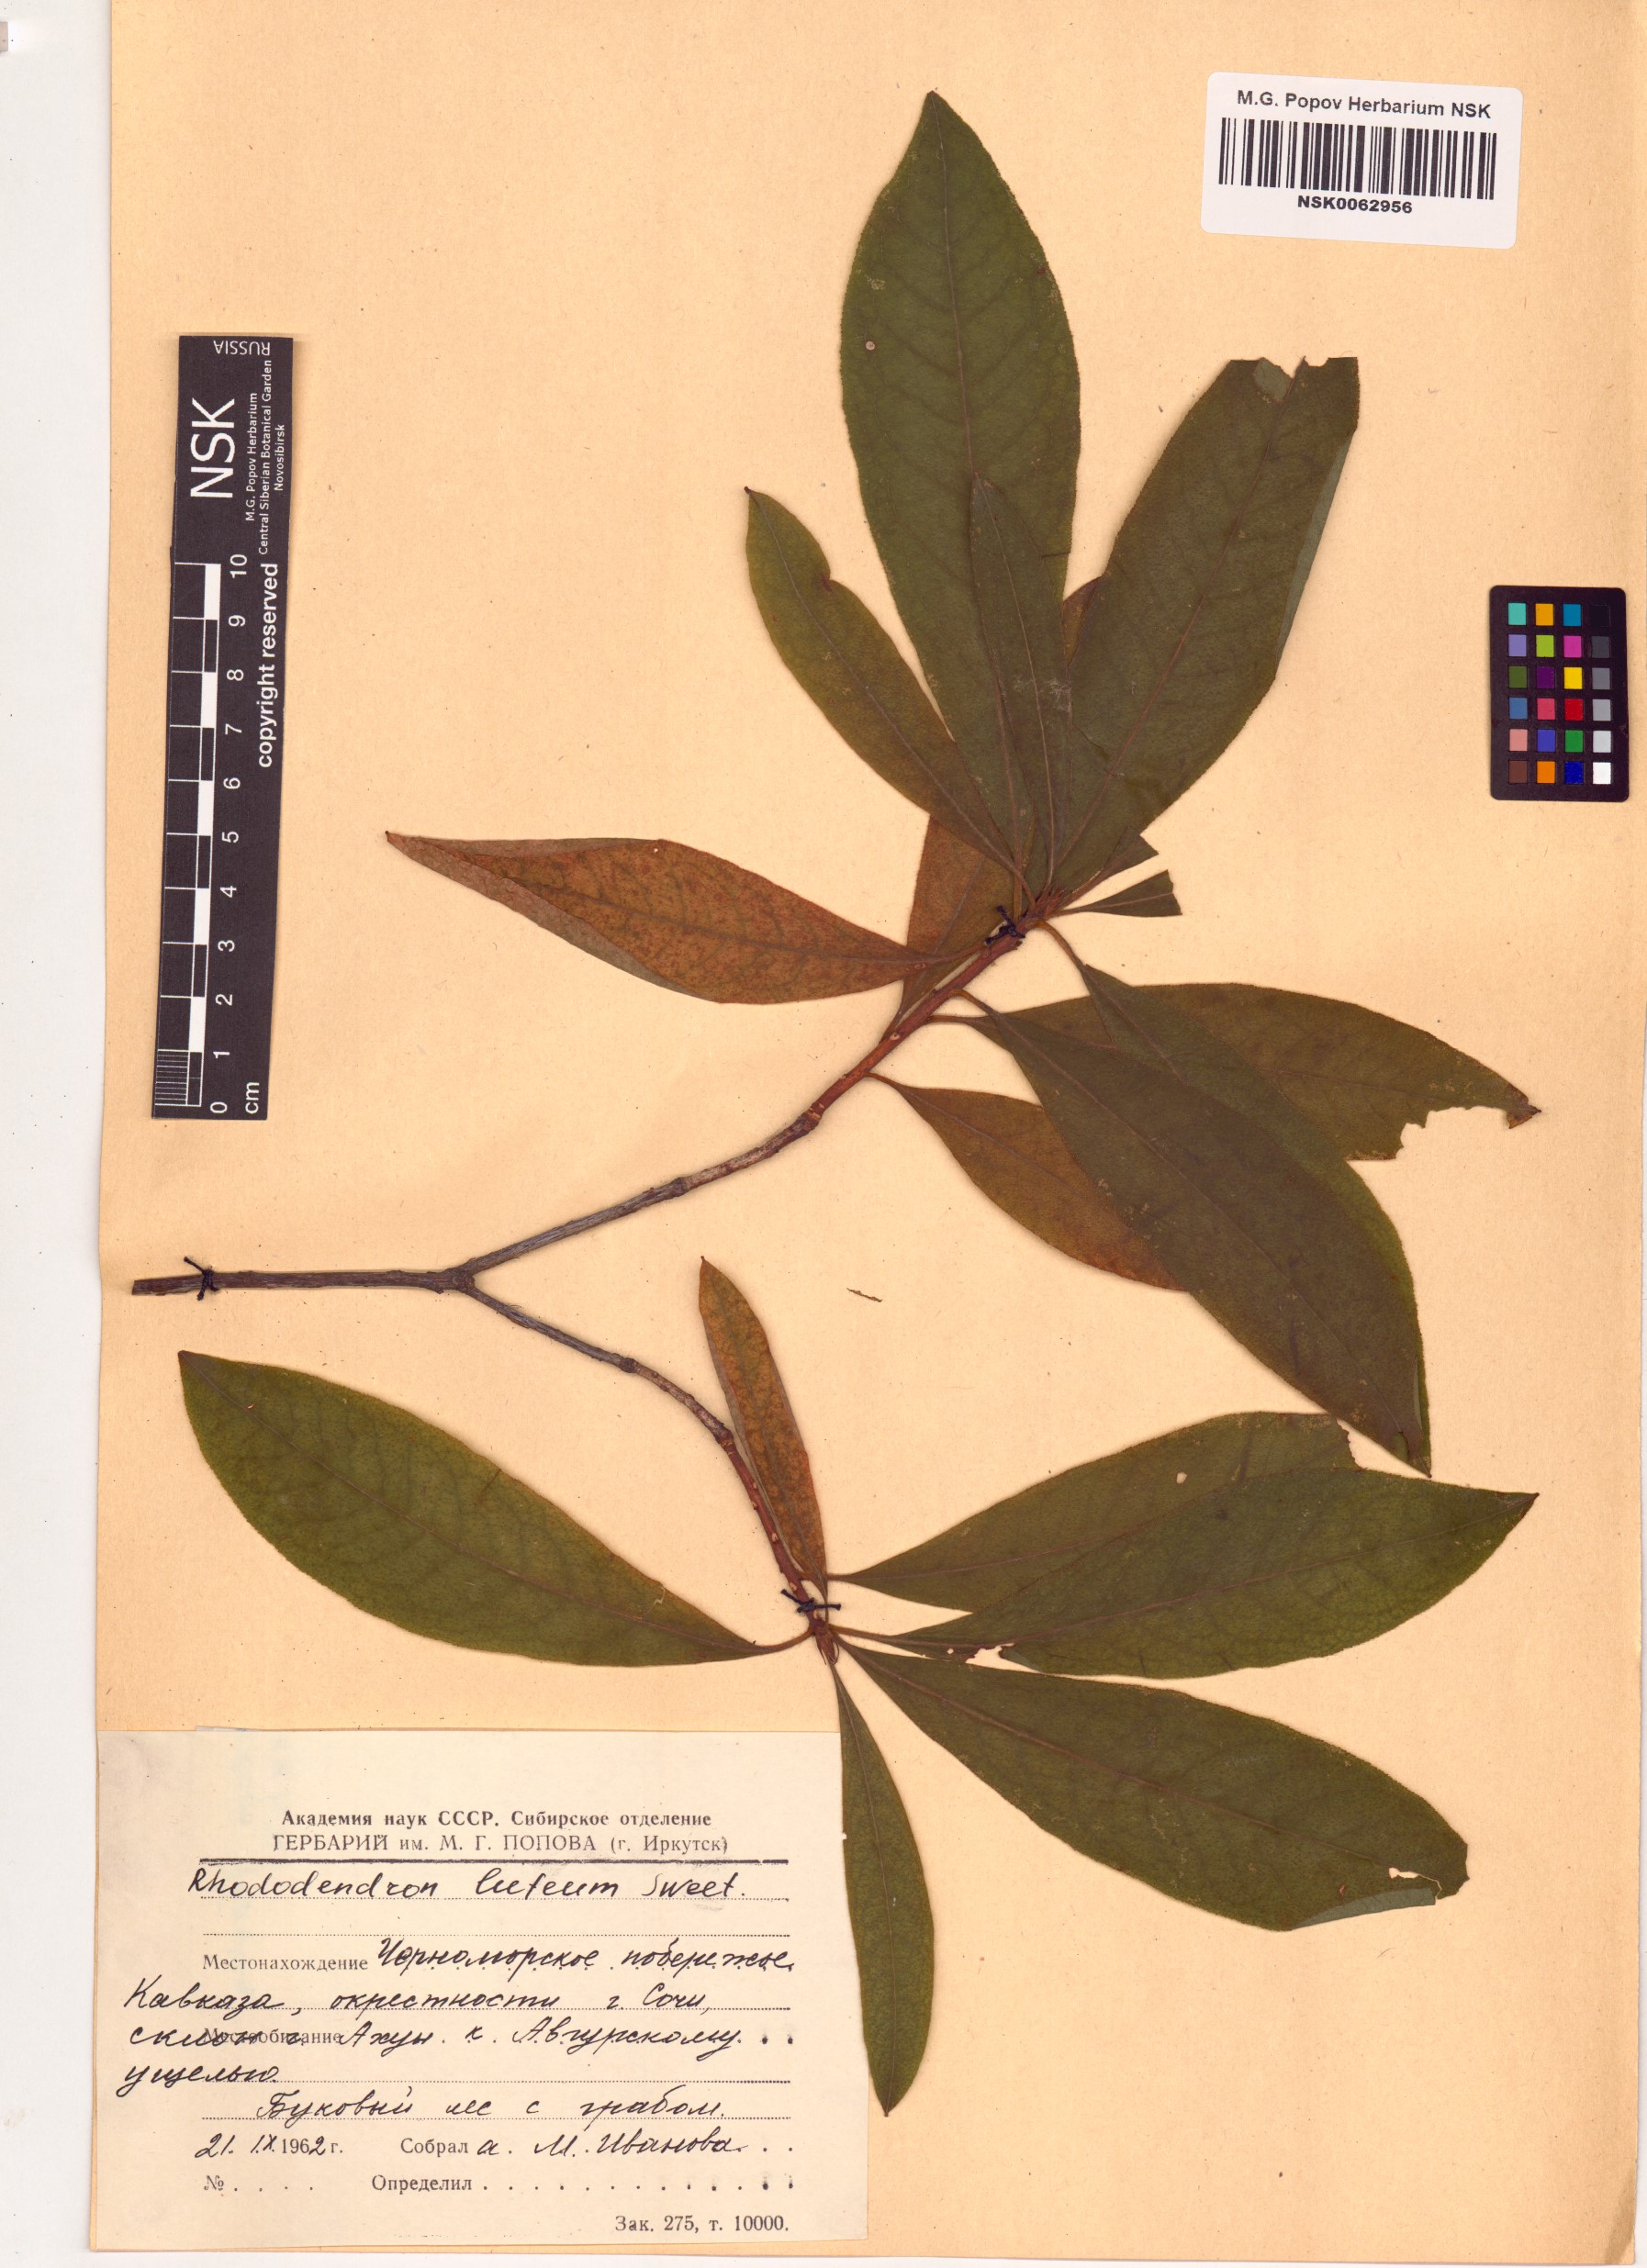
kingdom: Plantae
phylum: Tracheophyta
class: Magnoliopsida
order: Ericales
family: Ericaceae
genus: Rhododendron
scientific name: Rhododendron luteum
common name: Yellow azalea
